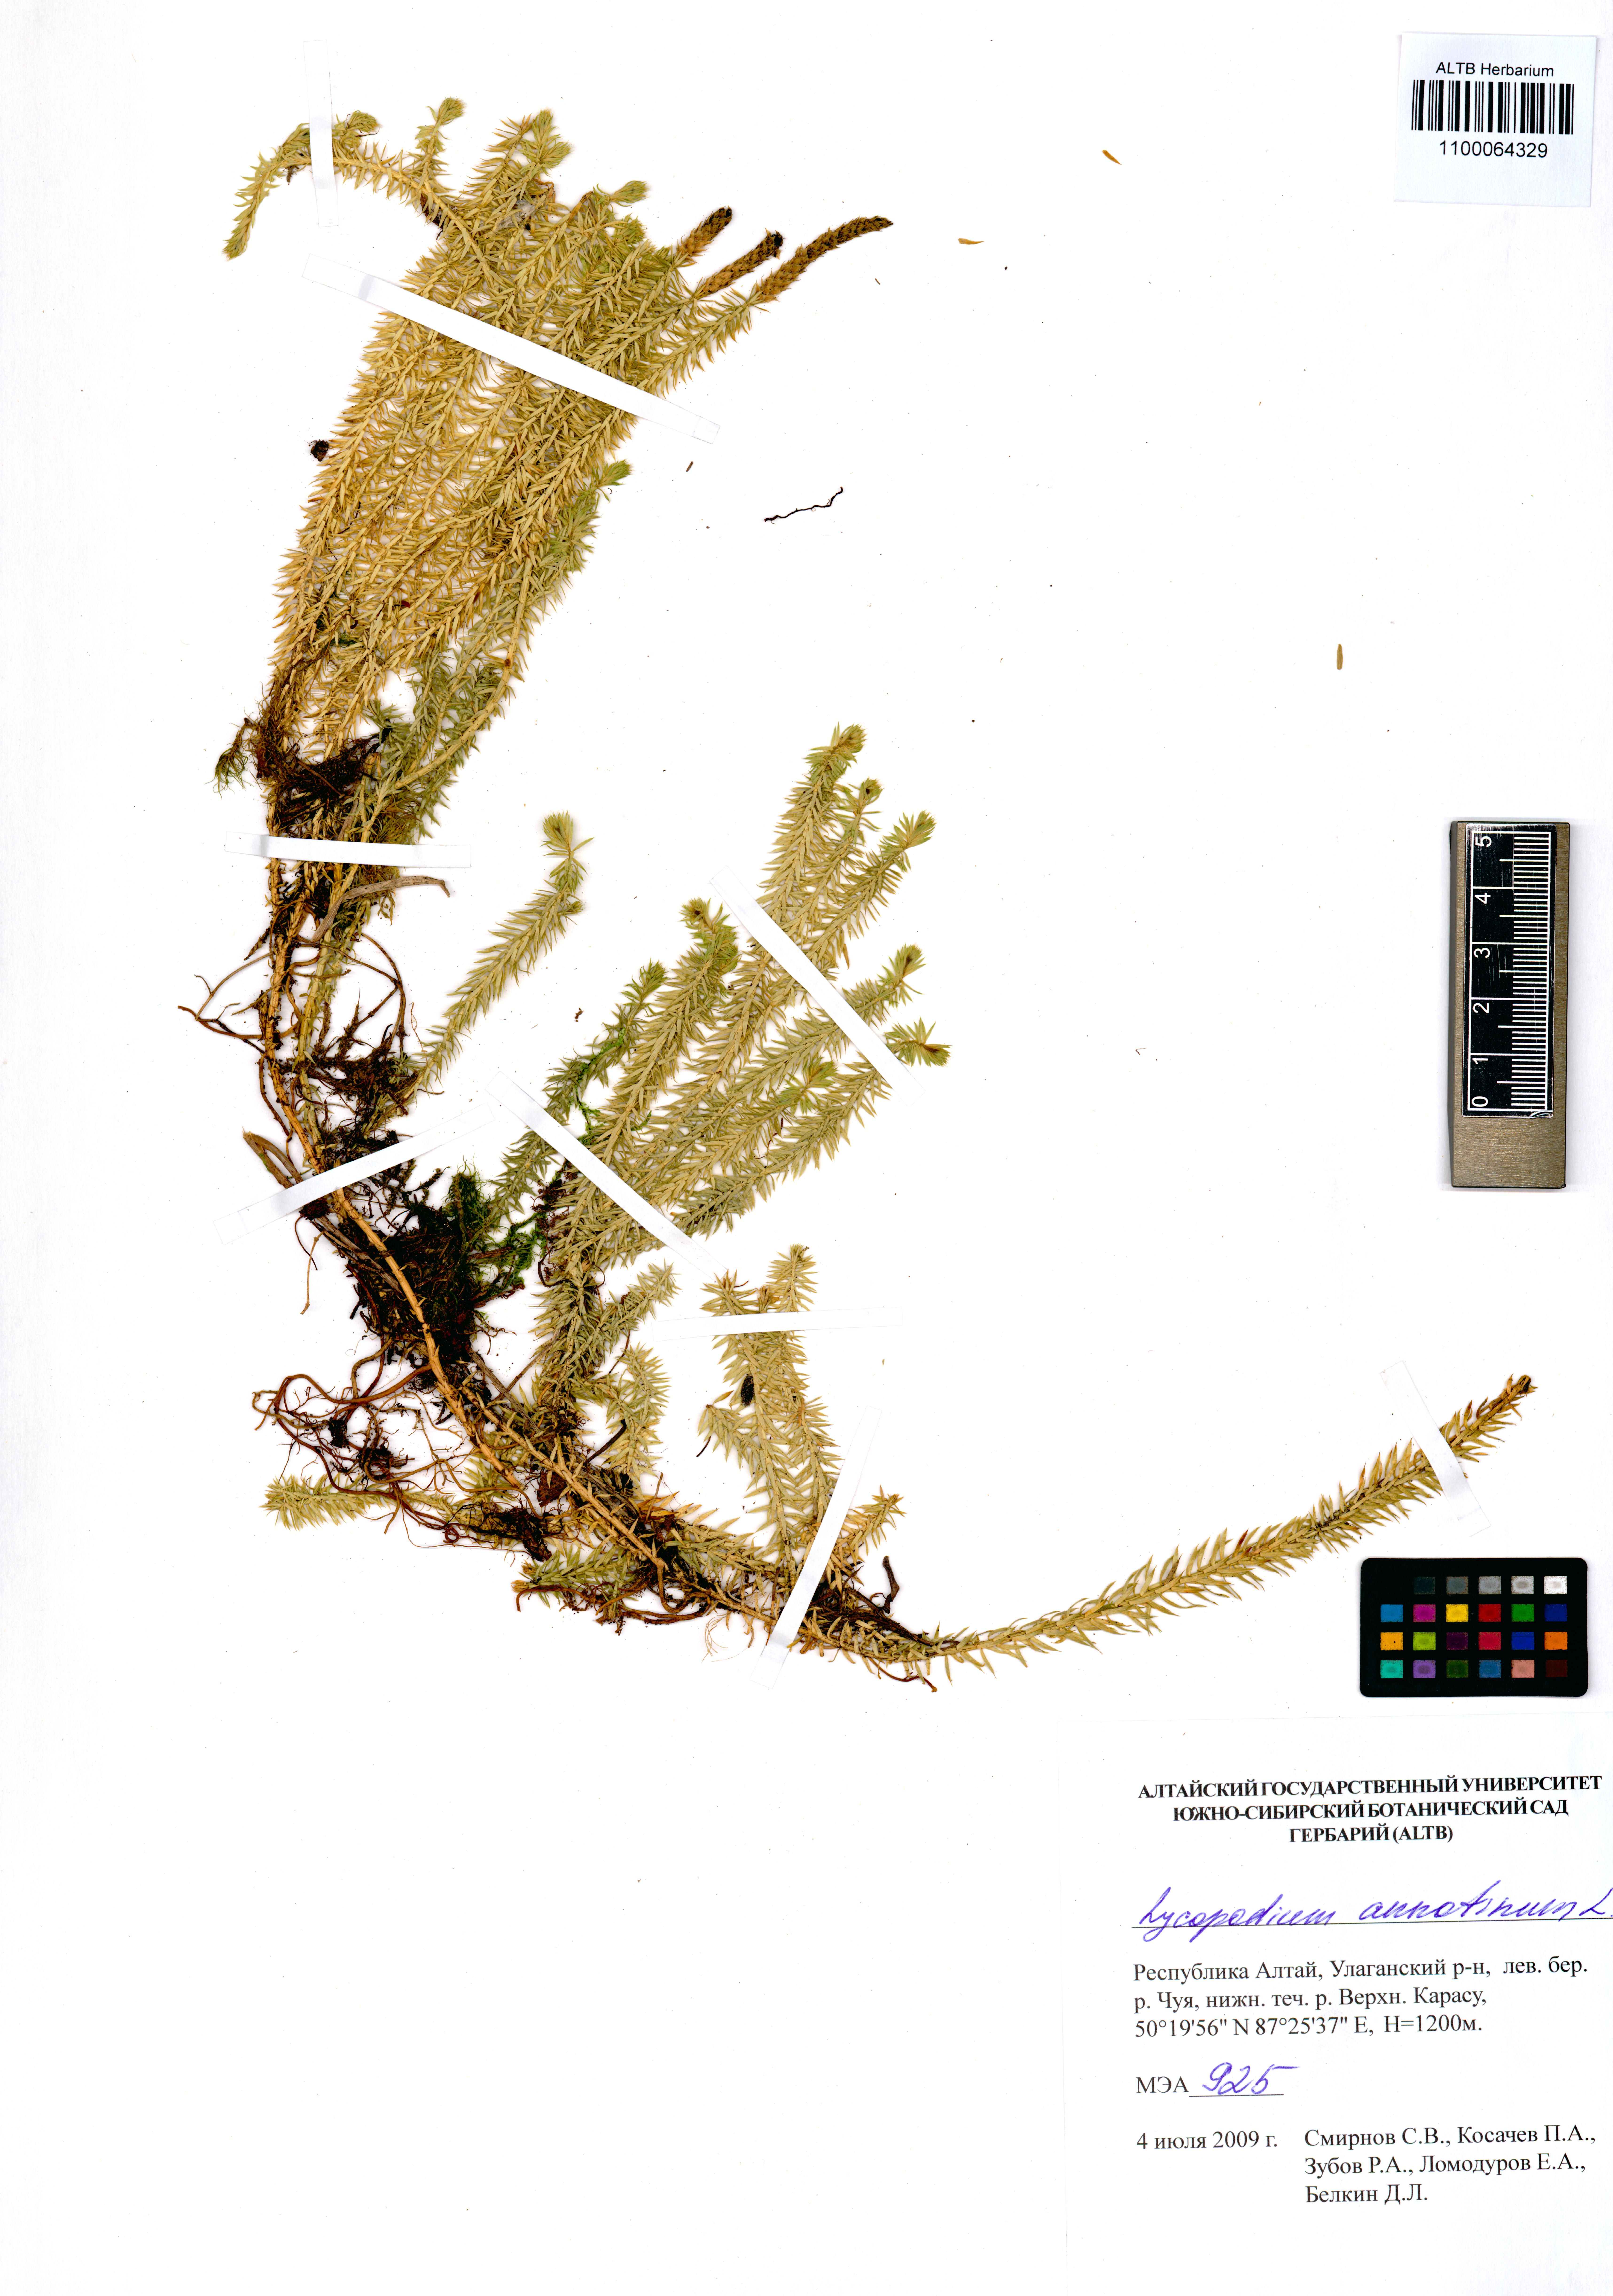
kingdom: Plantae
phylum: Tracheophyta
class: Lycopodiopsida
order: Lycopodiales
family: Lycopodiaceae
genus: Spinulum
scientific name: Spinulum annotinum
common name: Interrupted club-moss
